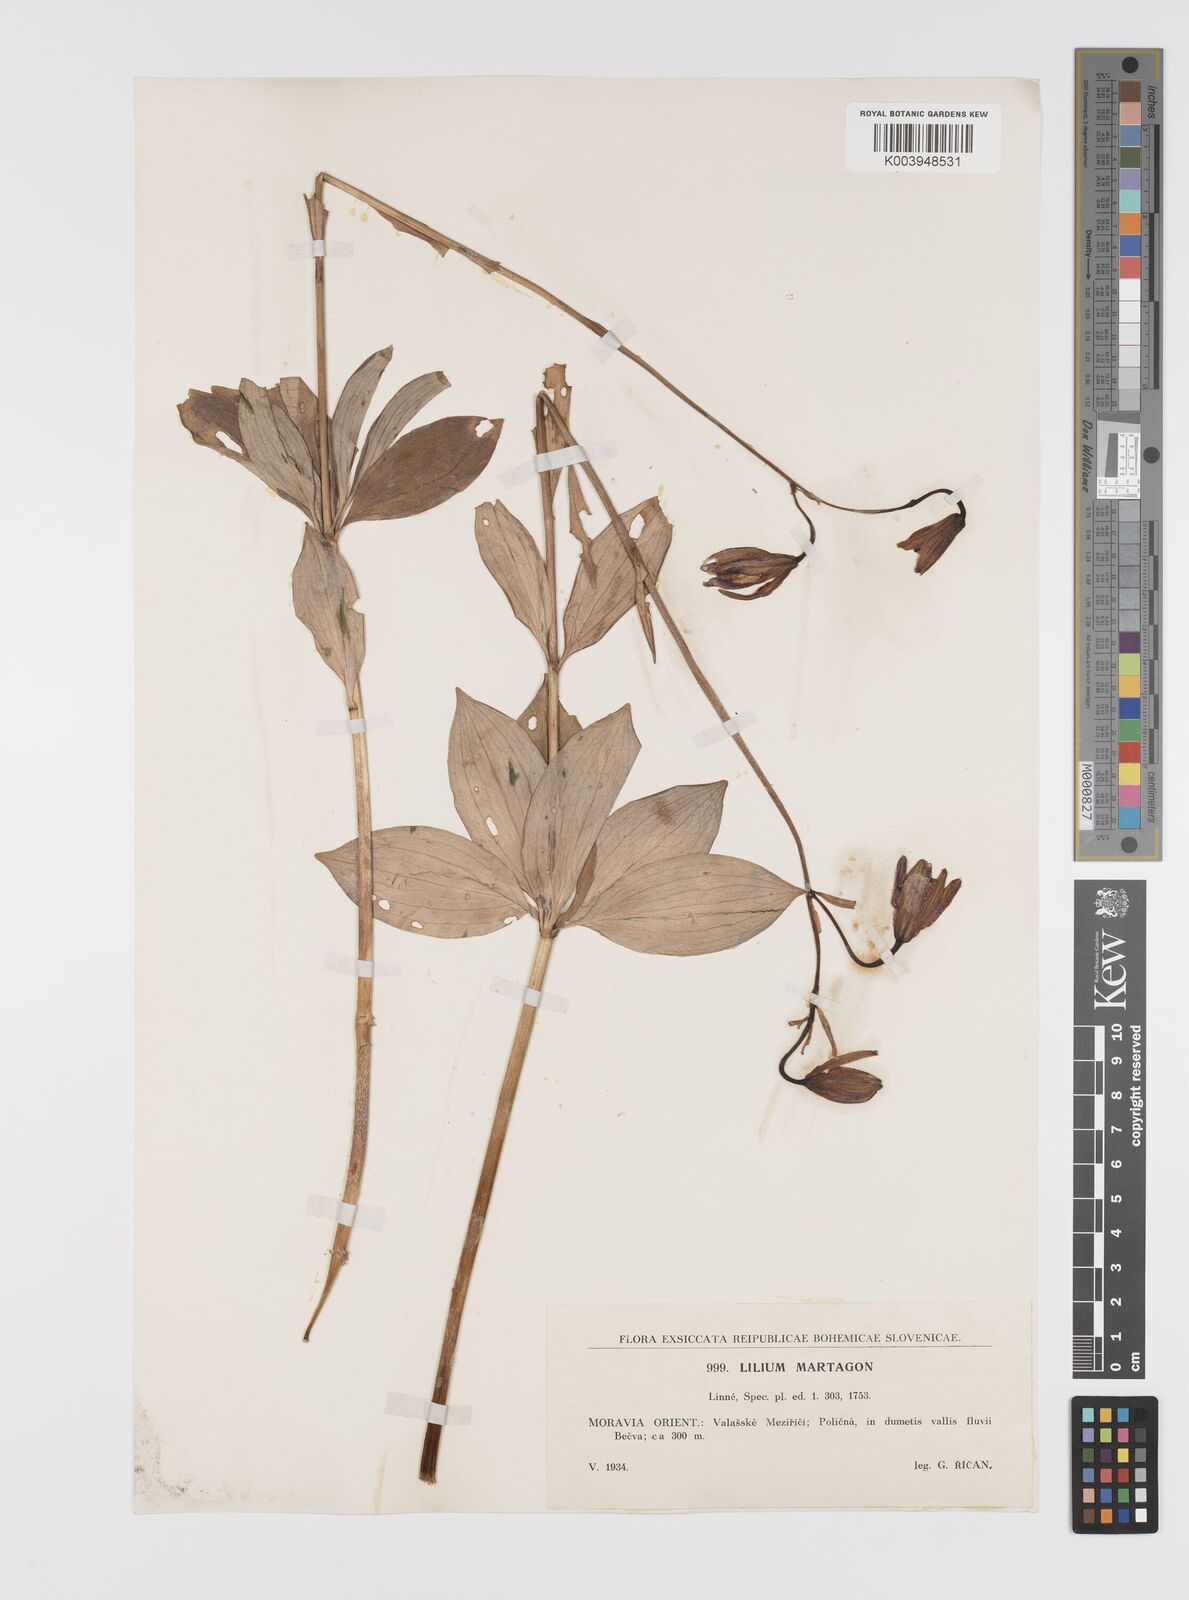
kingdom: Plantae
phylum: Tracheophyta
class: Liliopsida
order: Liliales
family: Liliaceae
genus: Lilium
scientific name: Lilium martagon
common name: Martagon lily
